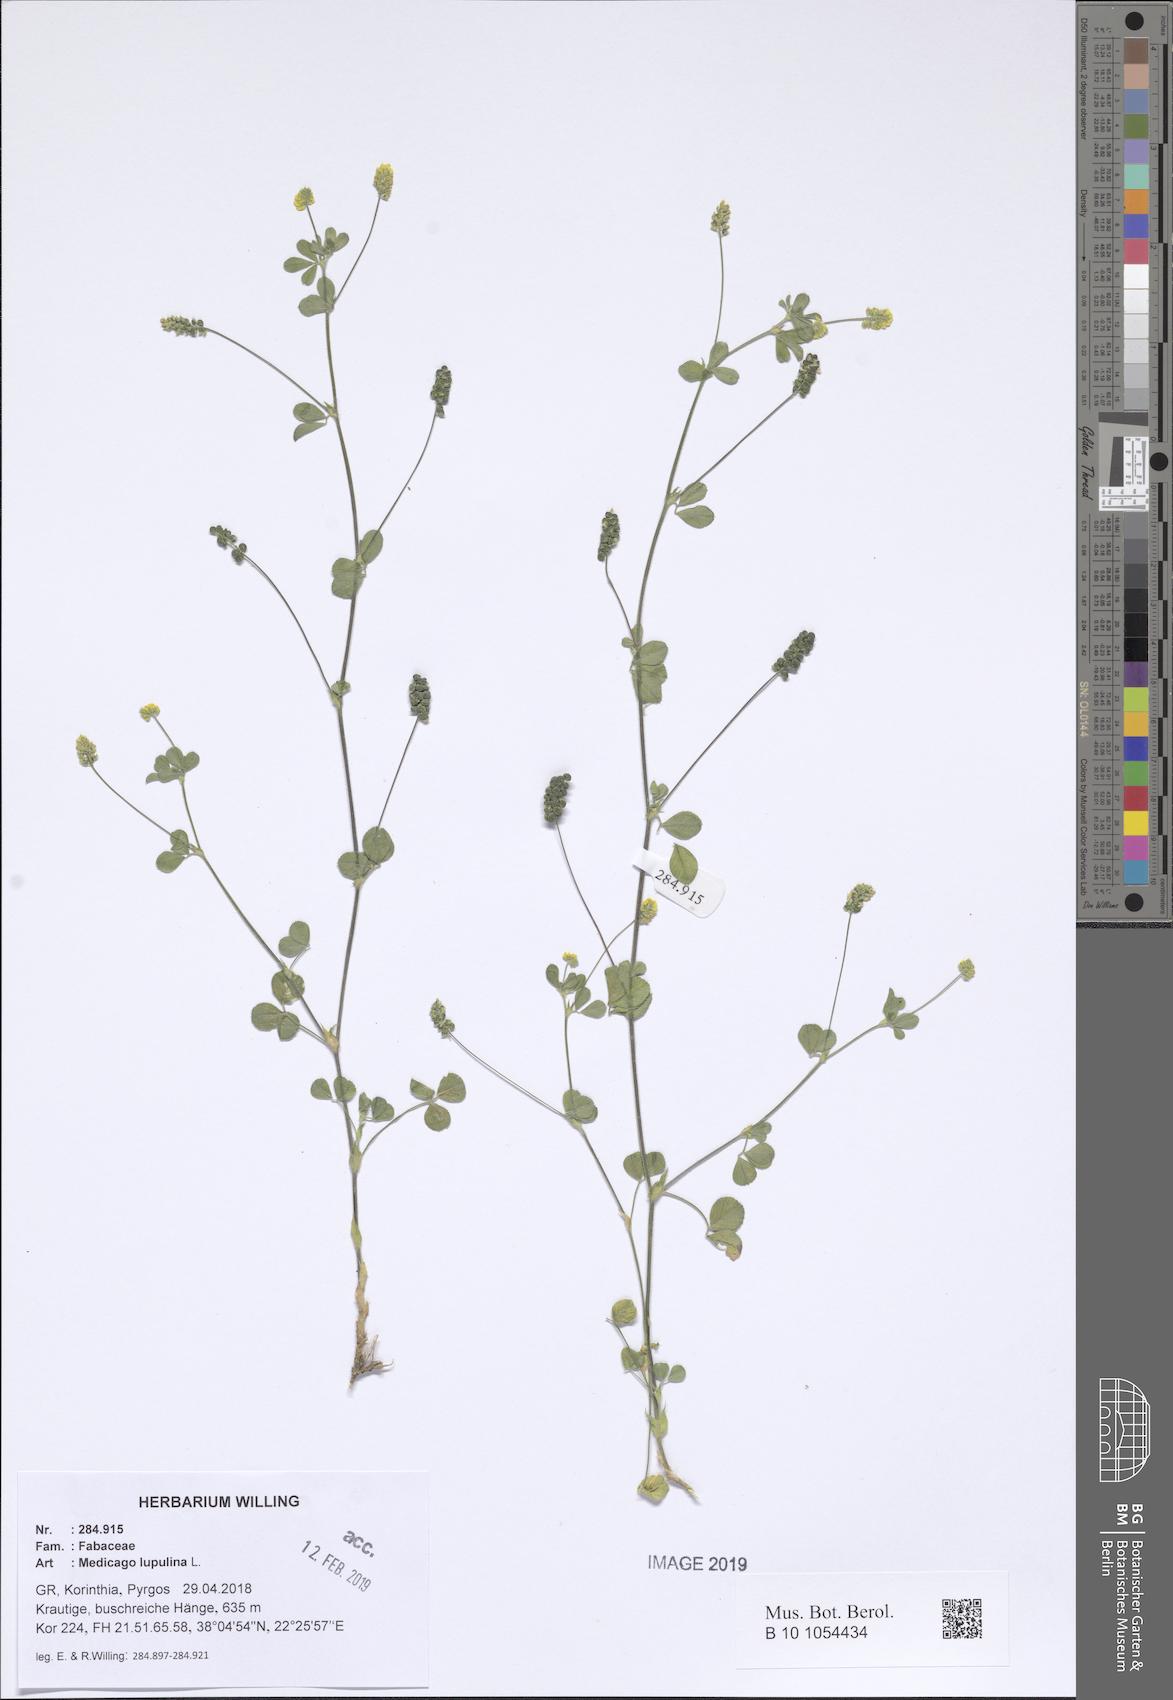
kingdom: Plantae
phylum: Tracheophyta
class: Magnoliopsida
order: Fabales
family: Fabaceae
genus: Medicago
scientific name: Medicago lupulina
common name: Black medick
